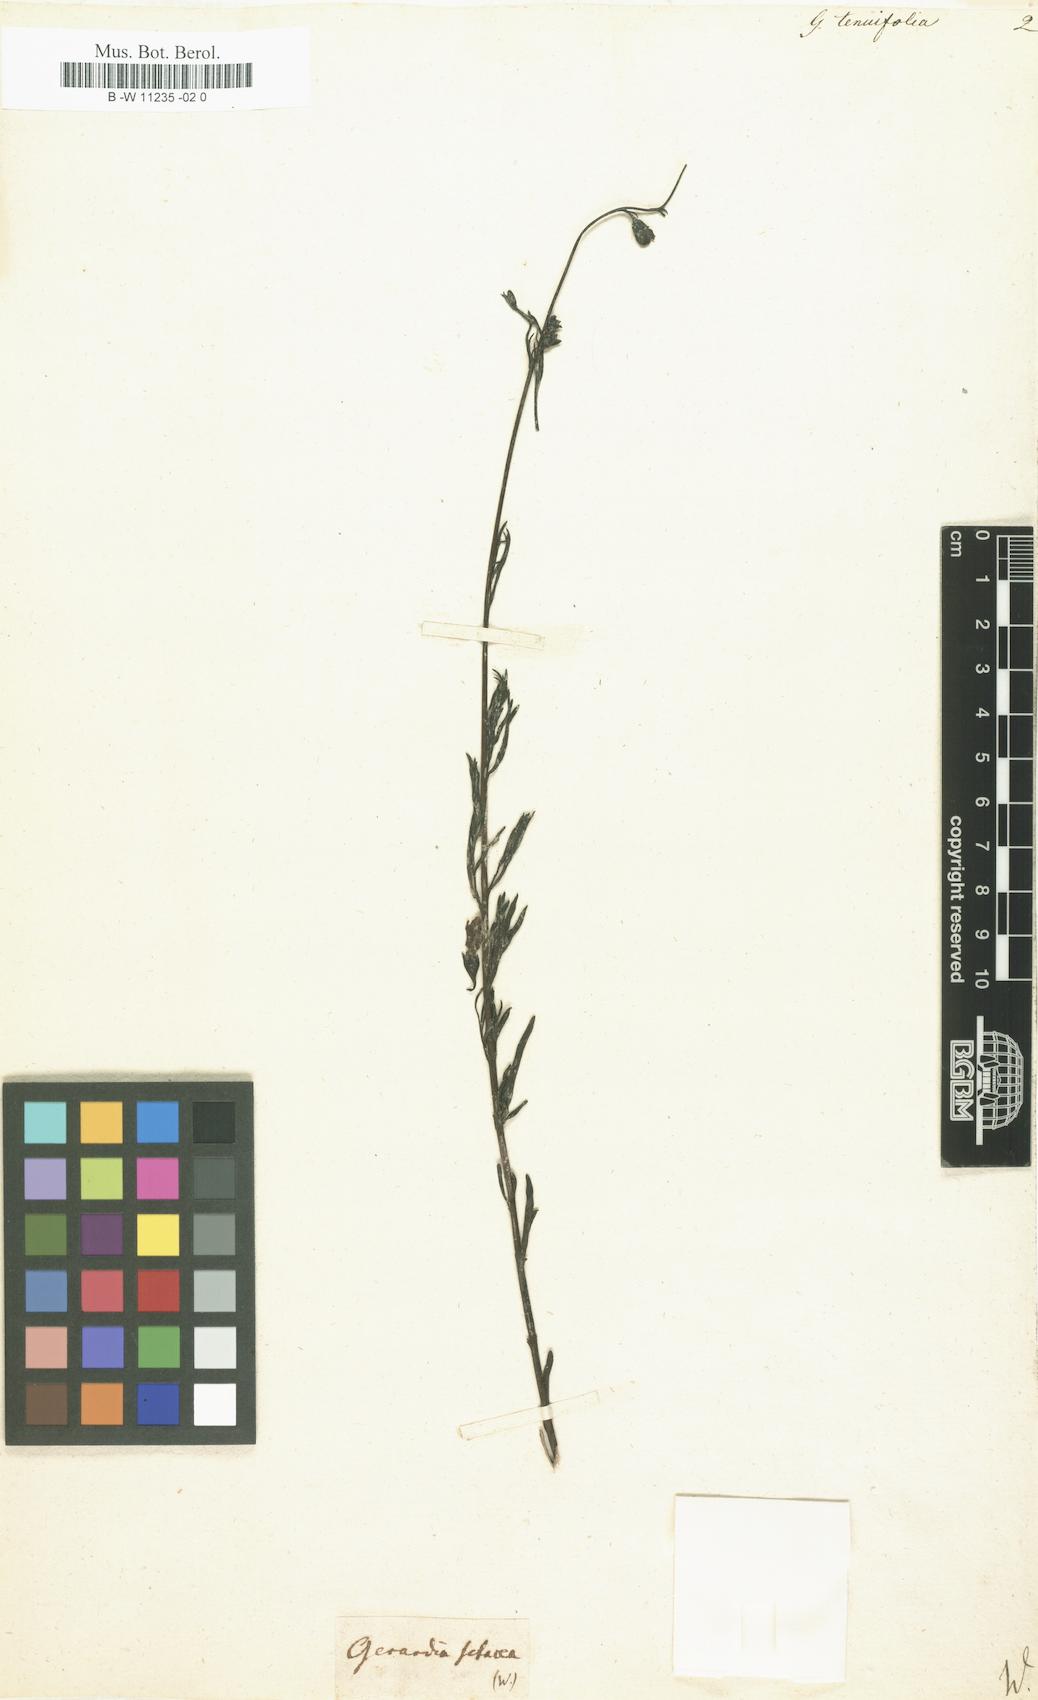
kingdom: Plantae
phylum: Tracheophyta
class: Magnoliopsida
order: Lamiales
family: Orobanchaceae
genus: Agalinis
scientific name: Agalinis tenuifolia
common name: Slender agalinis
